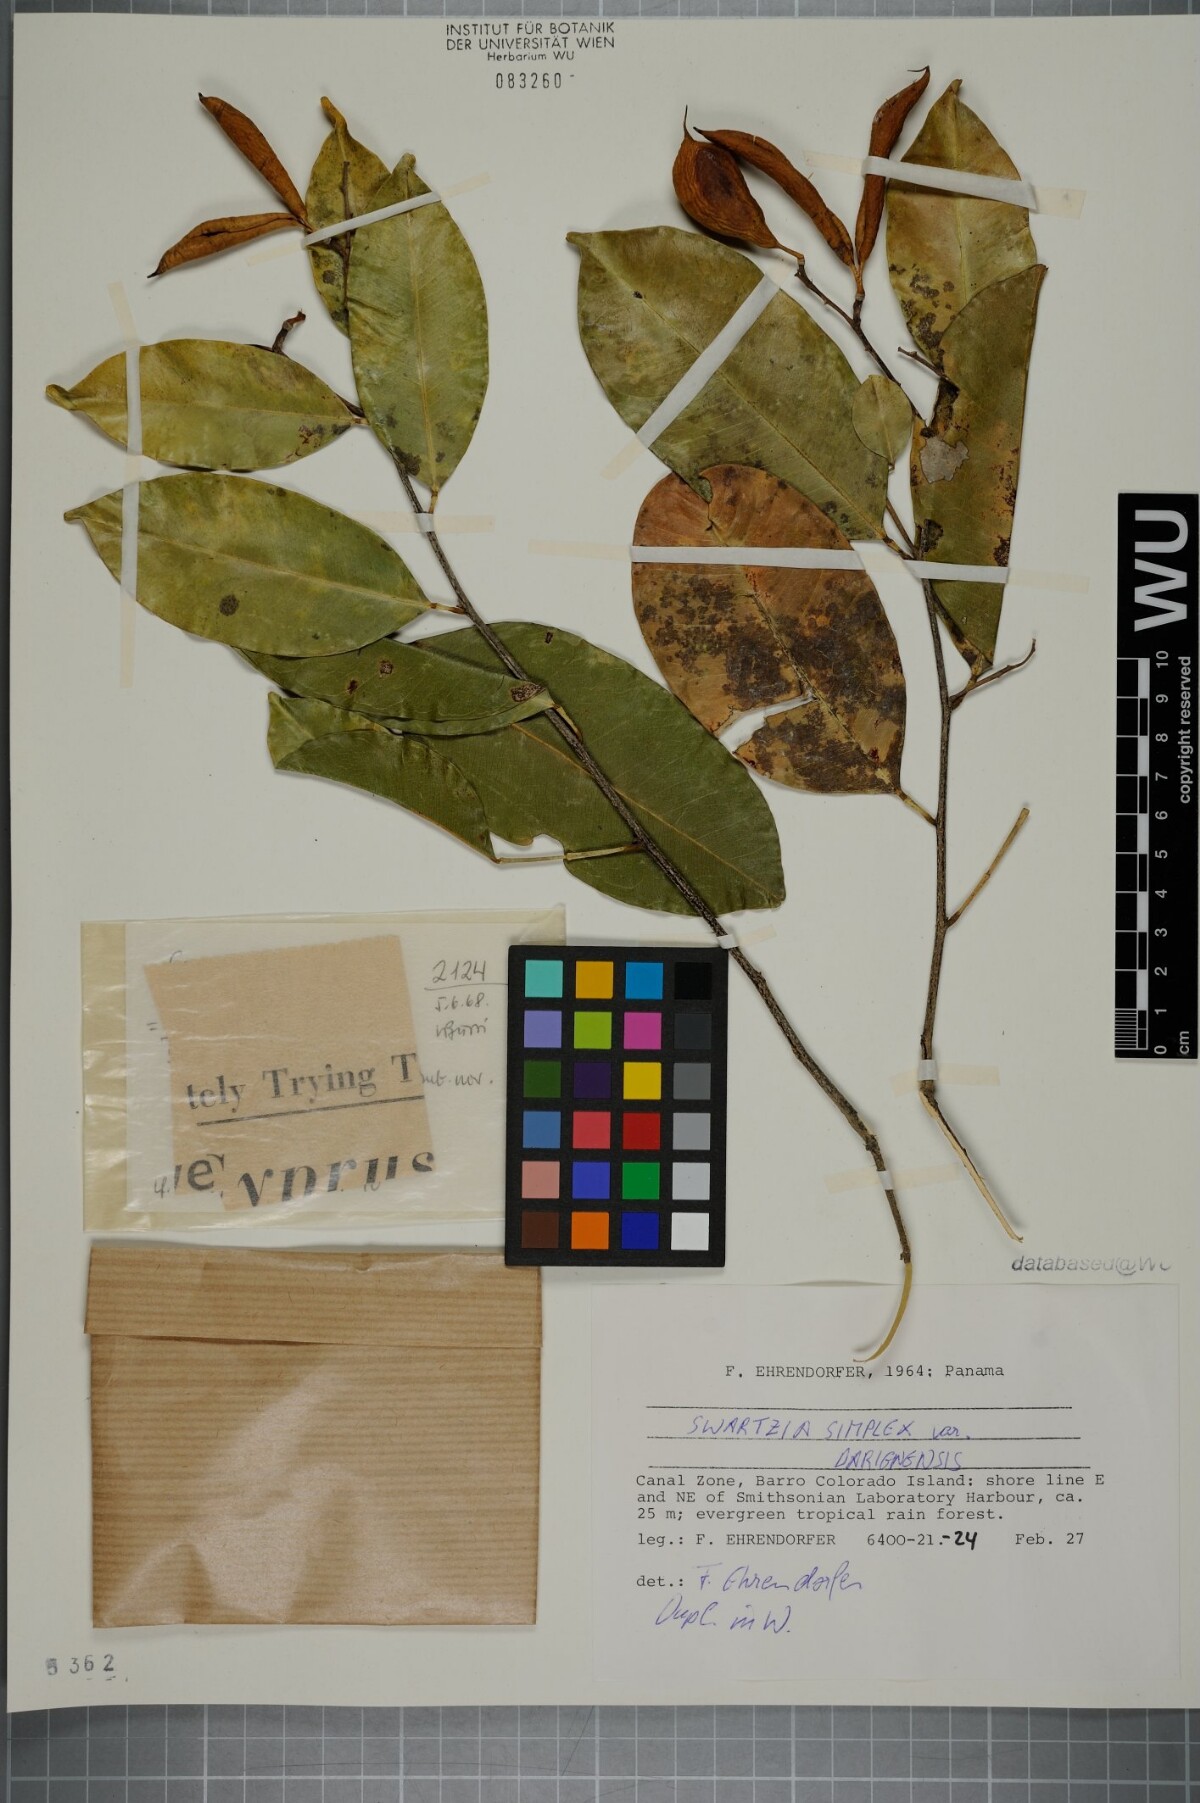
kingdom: Plantae
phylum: Tracheophyta
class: Magnoliopsida
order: Fabales
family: Fabaceae
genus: Swartzia
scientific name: Swartzia simplex
